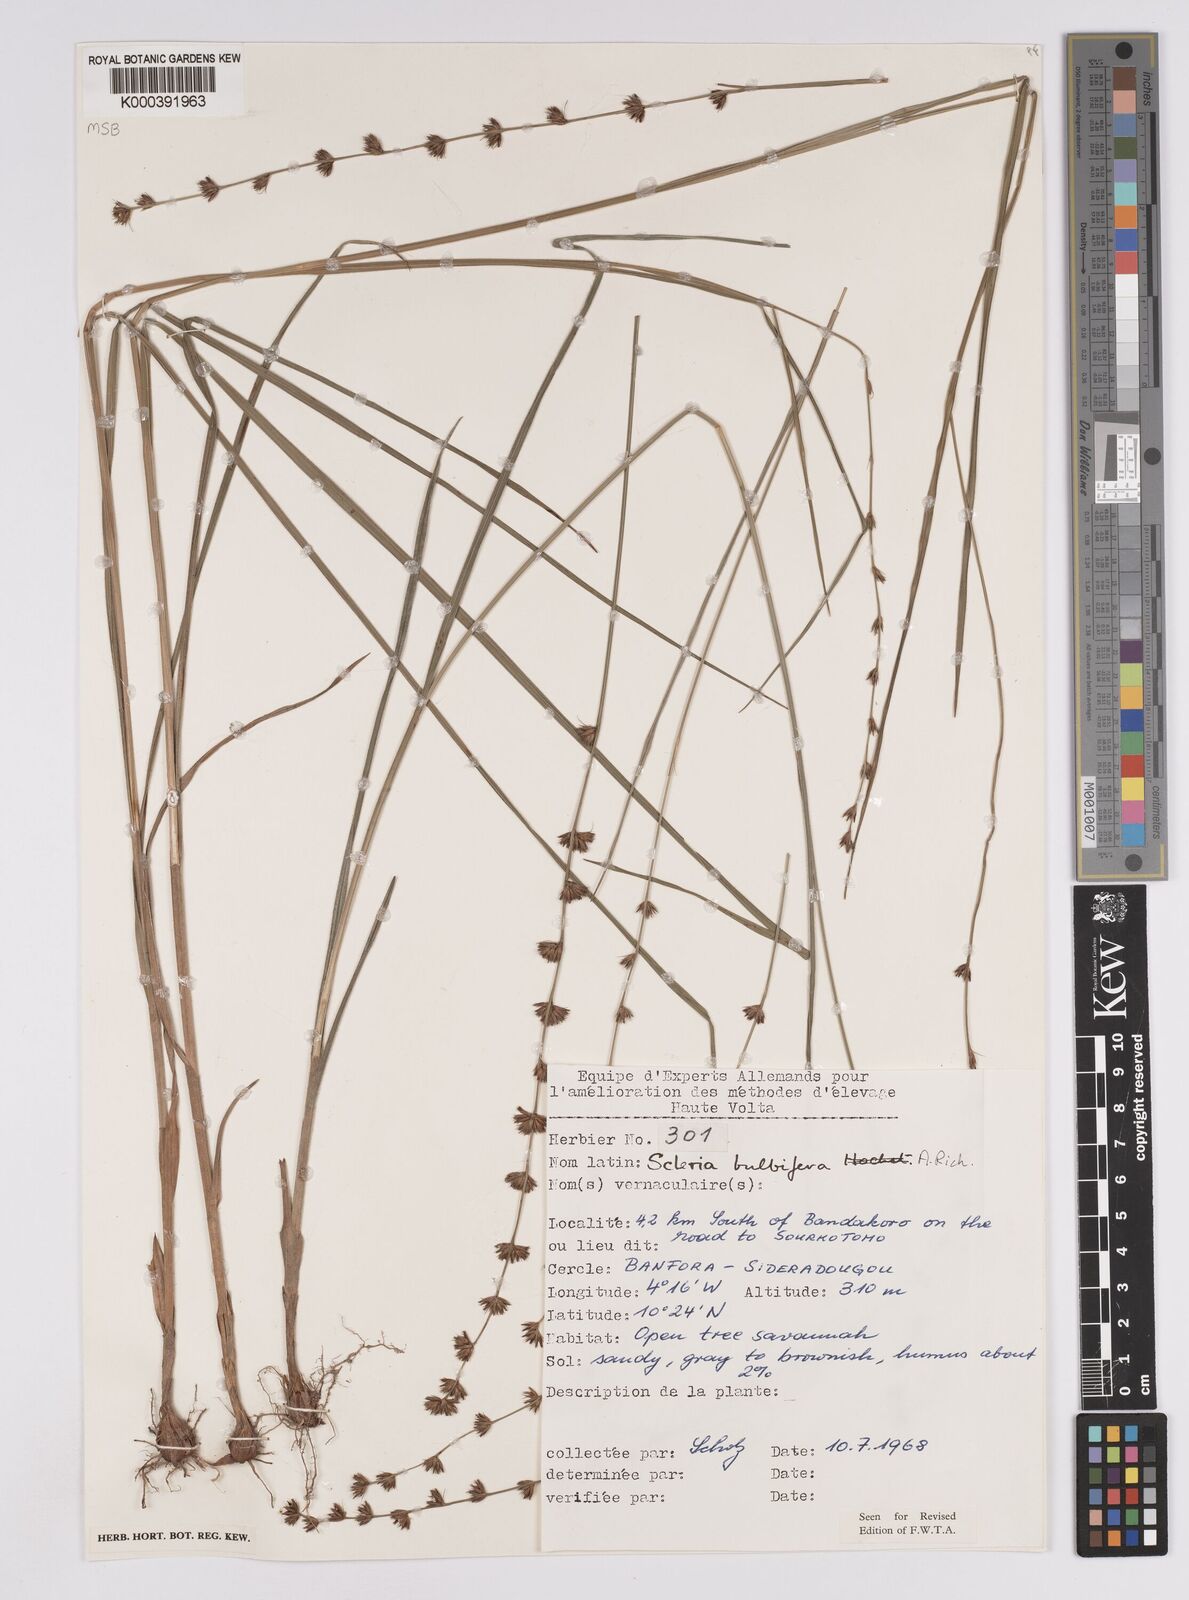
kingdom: Plantae
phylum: Tracheophyta
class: Liliopsida
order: Poales
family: Cyperaceae
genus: Scleria
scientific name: Scleria bulbifera
